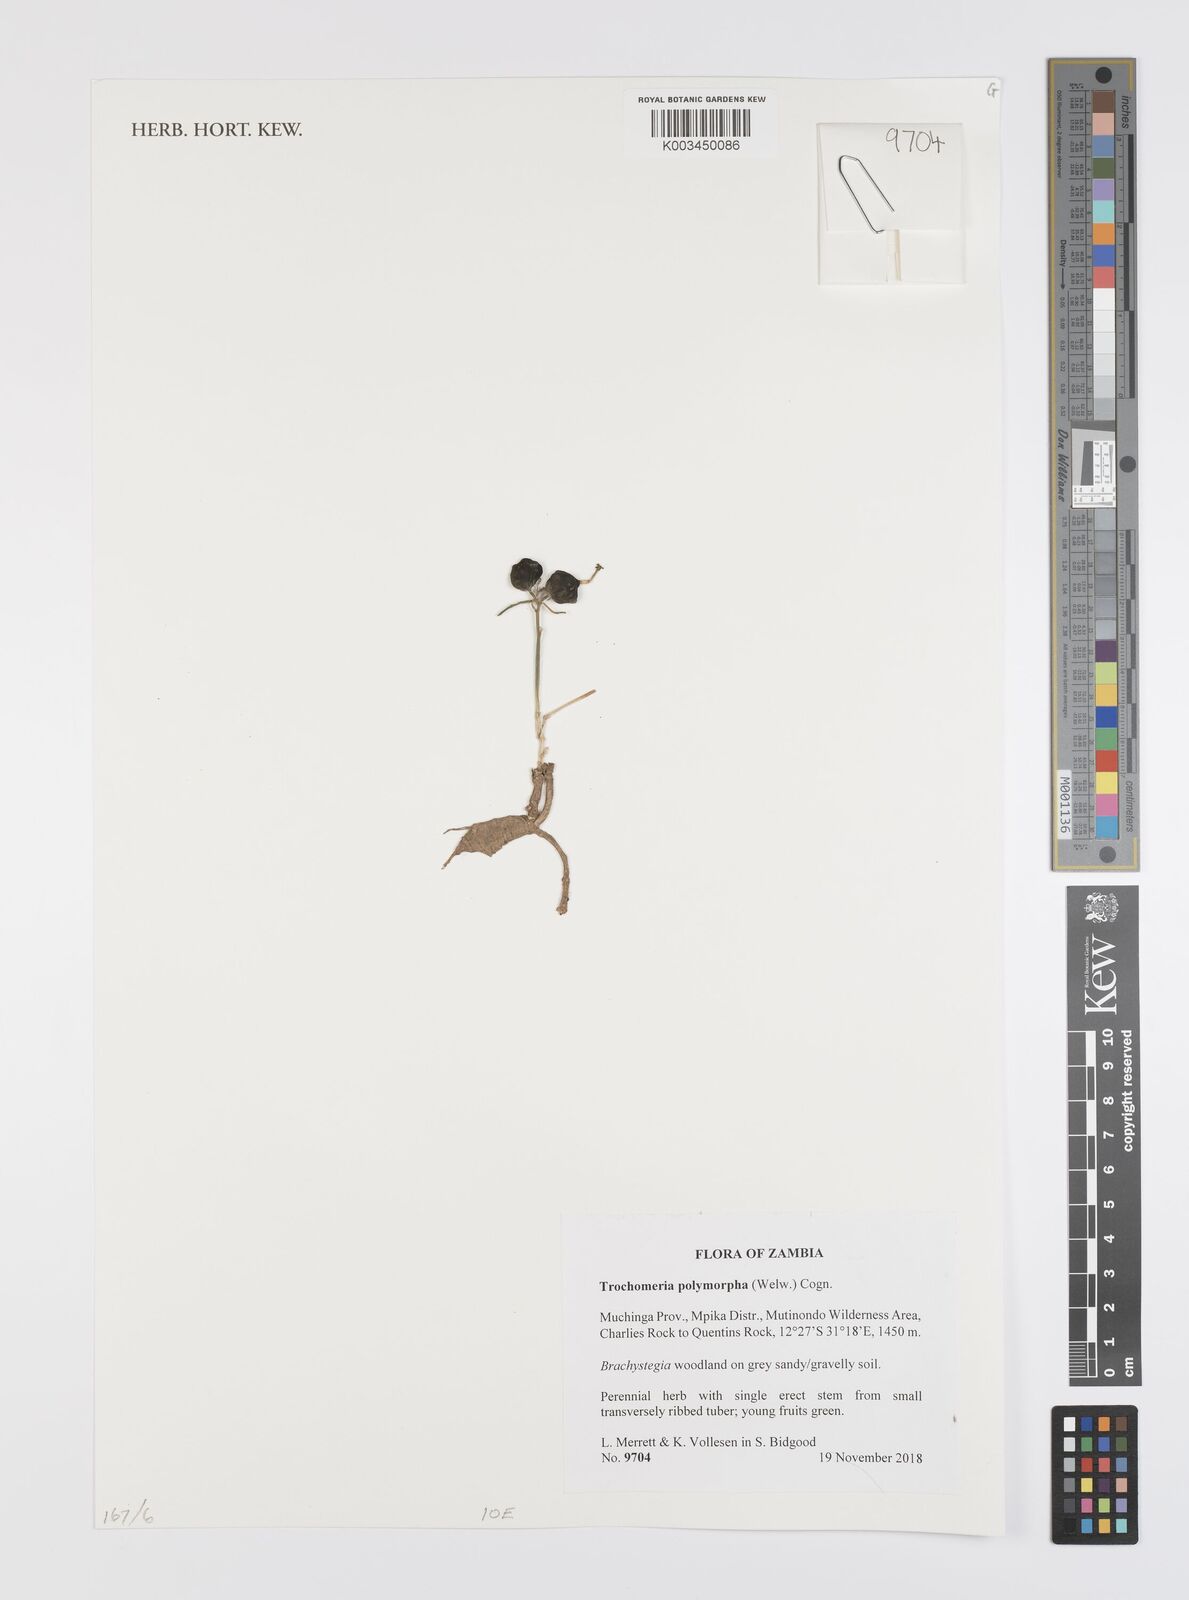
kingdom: Plantae
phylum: Tracheophyta
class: Magnoliopsida
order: Cucurbitales
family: Cucurbitaceae
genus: Trochomeria
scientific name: Trochomeria polymorpha
